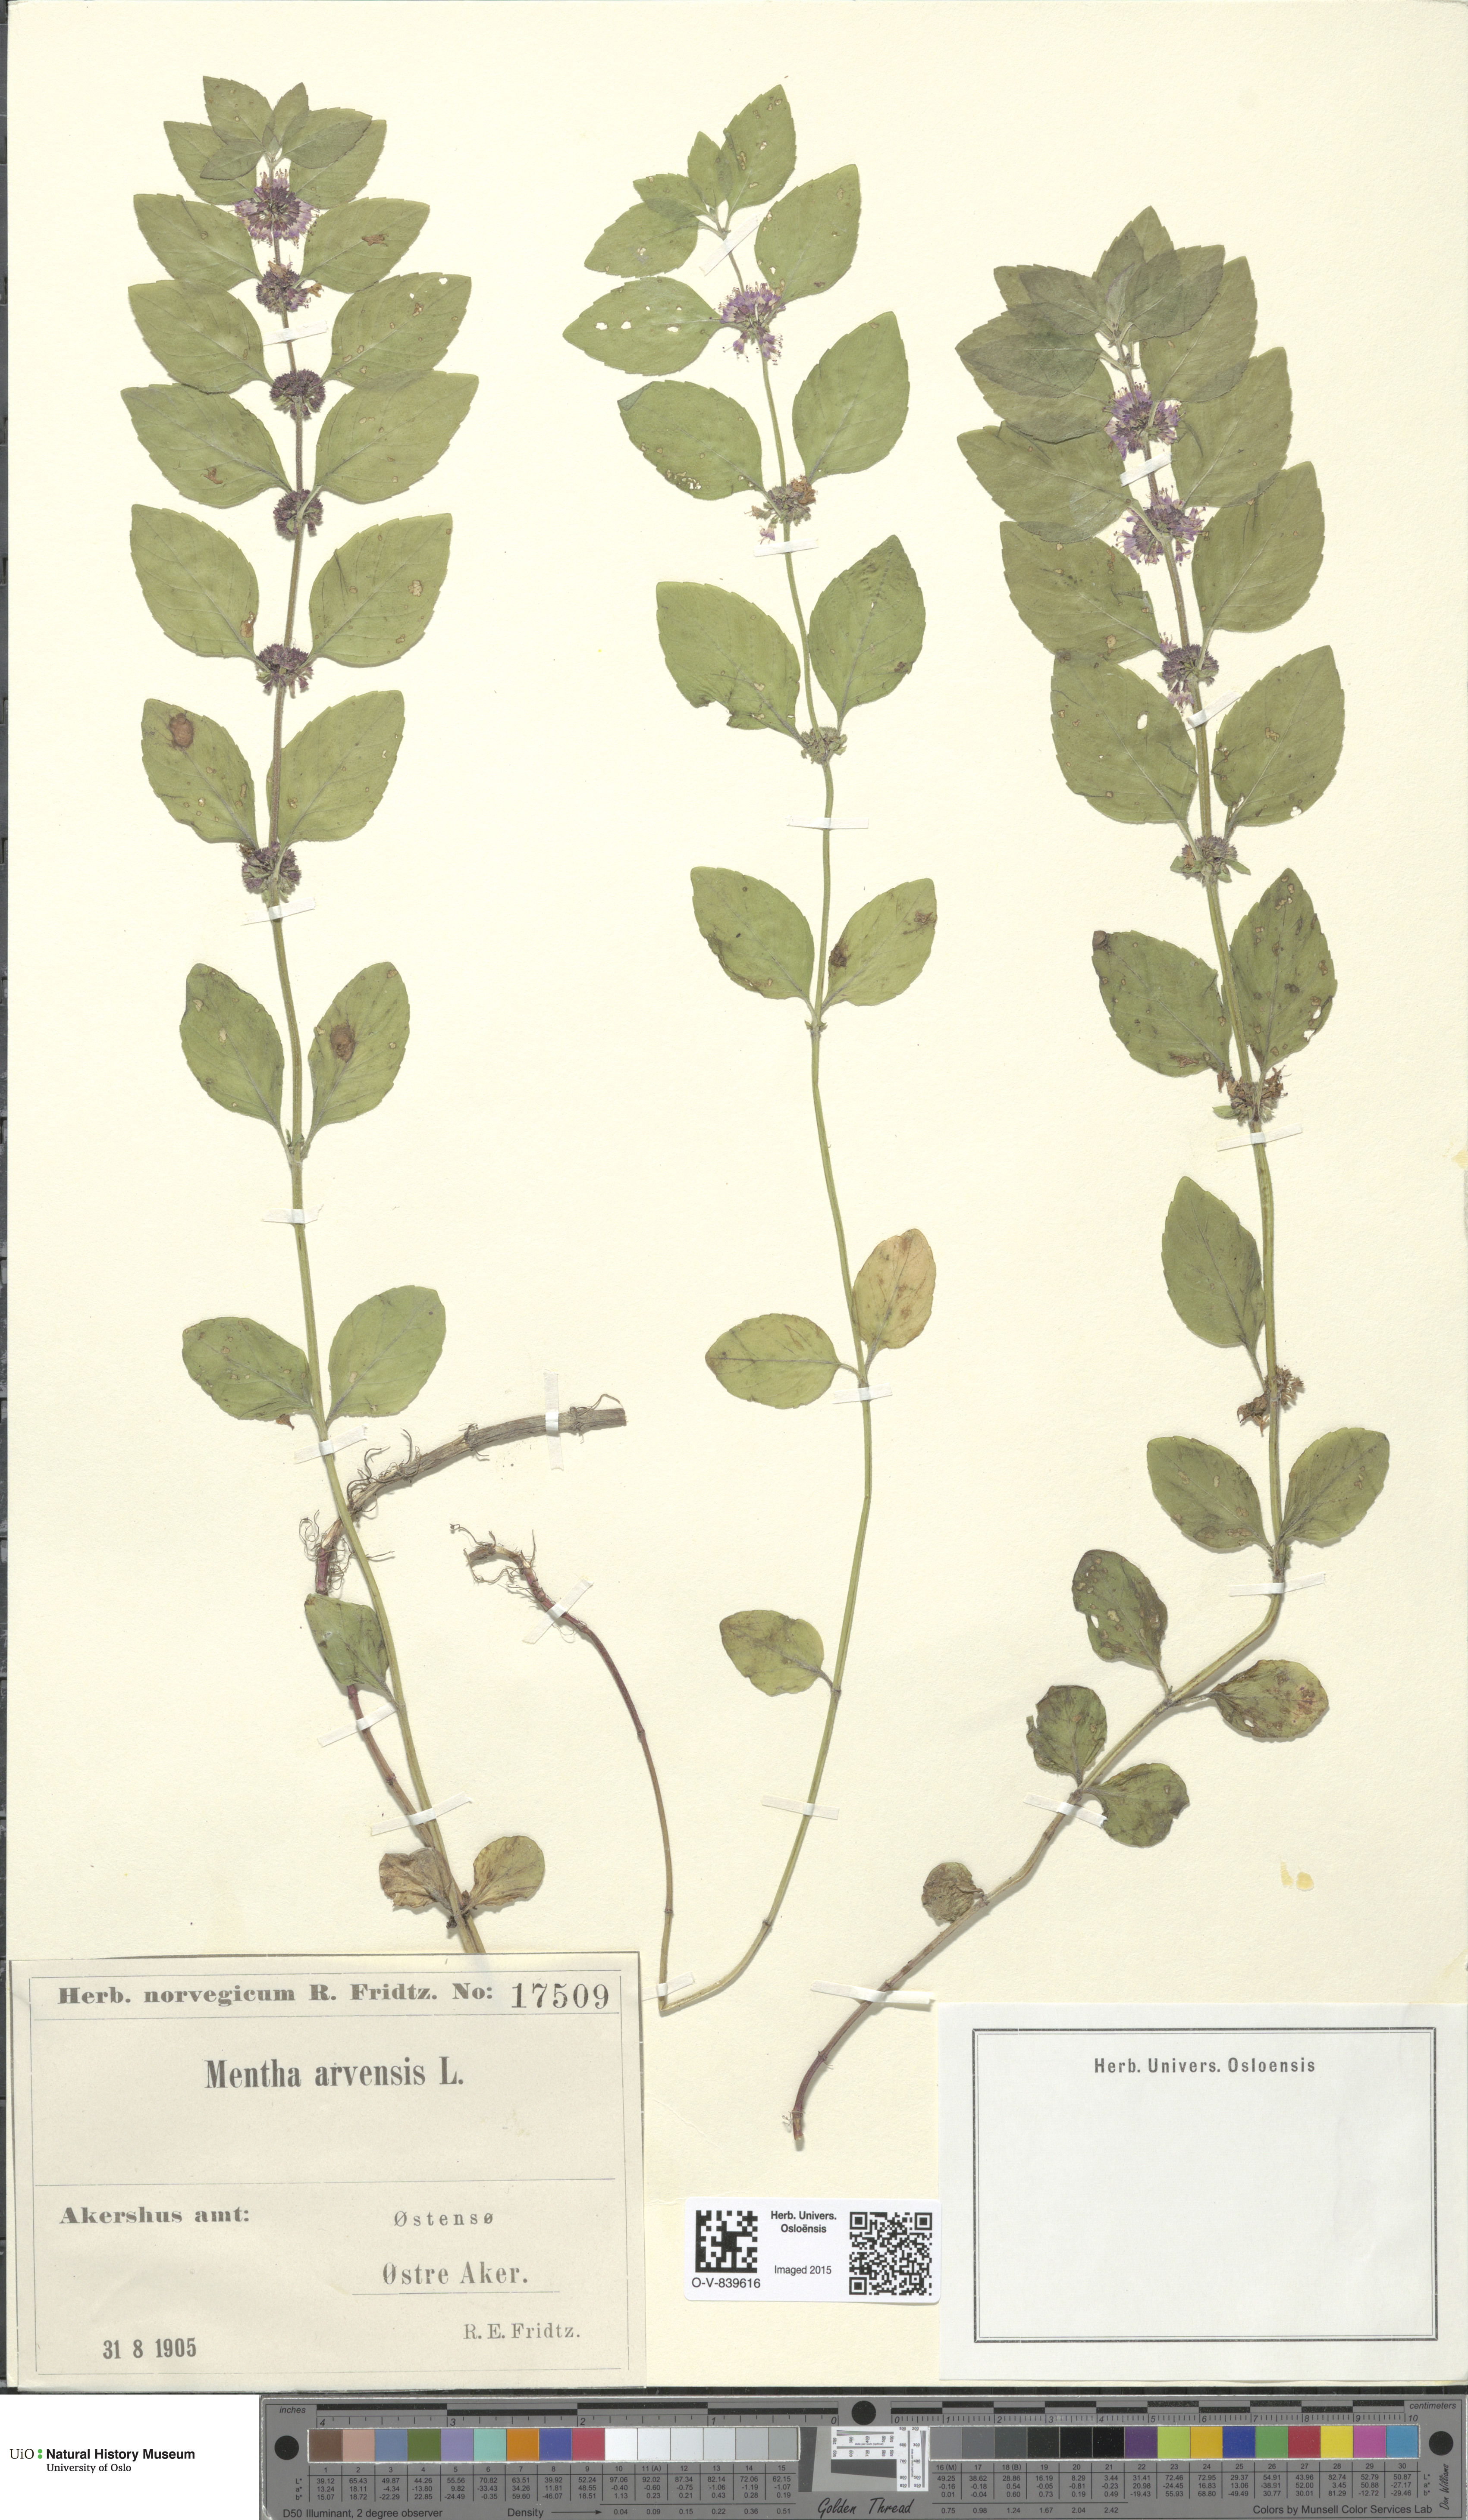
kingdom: Plantae
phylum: Tracheophyta
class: Magnoliopsida
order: Lamiales
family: Lamiaceae
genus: Mentha
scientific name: Mentha arvensis
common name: Corn mint
